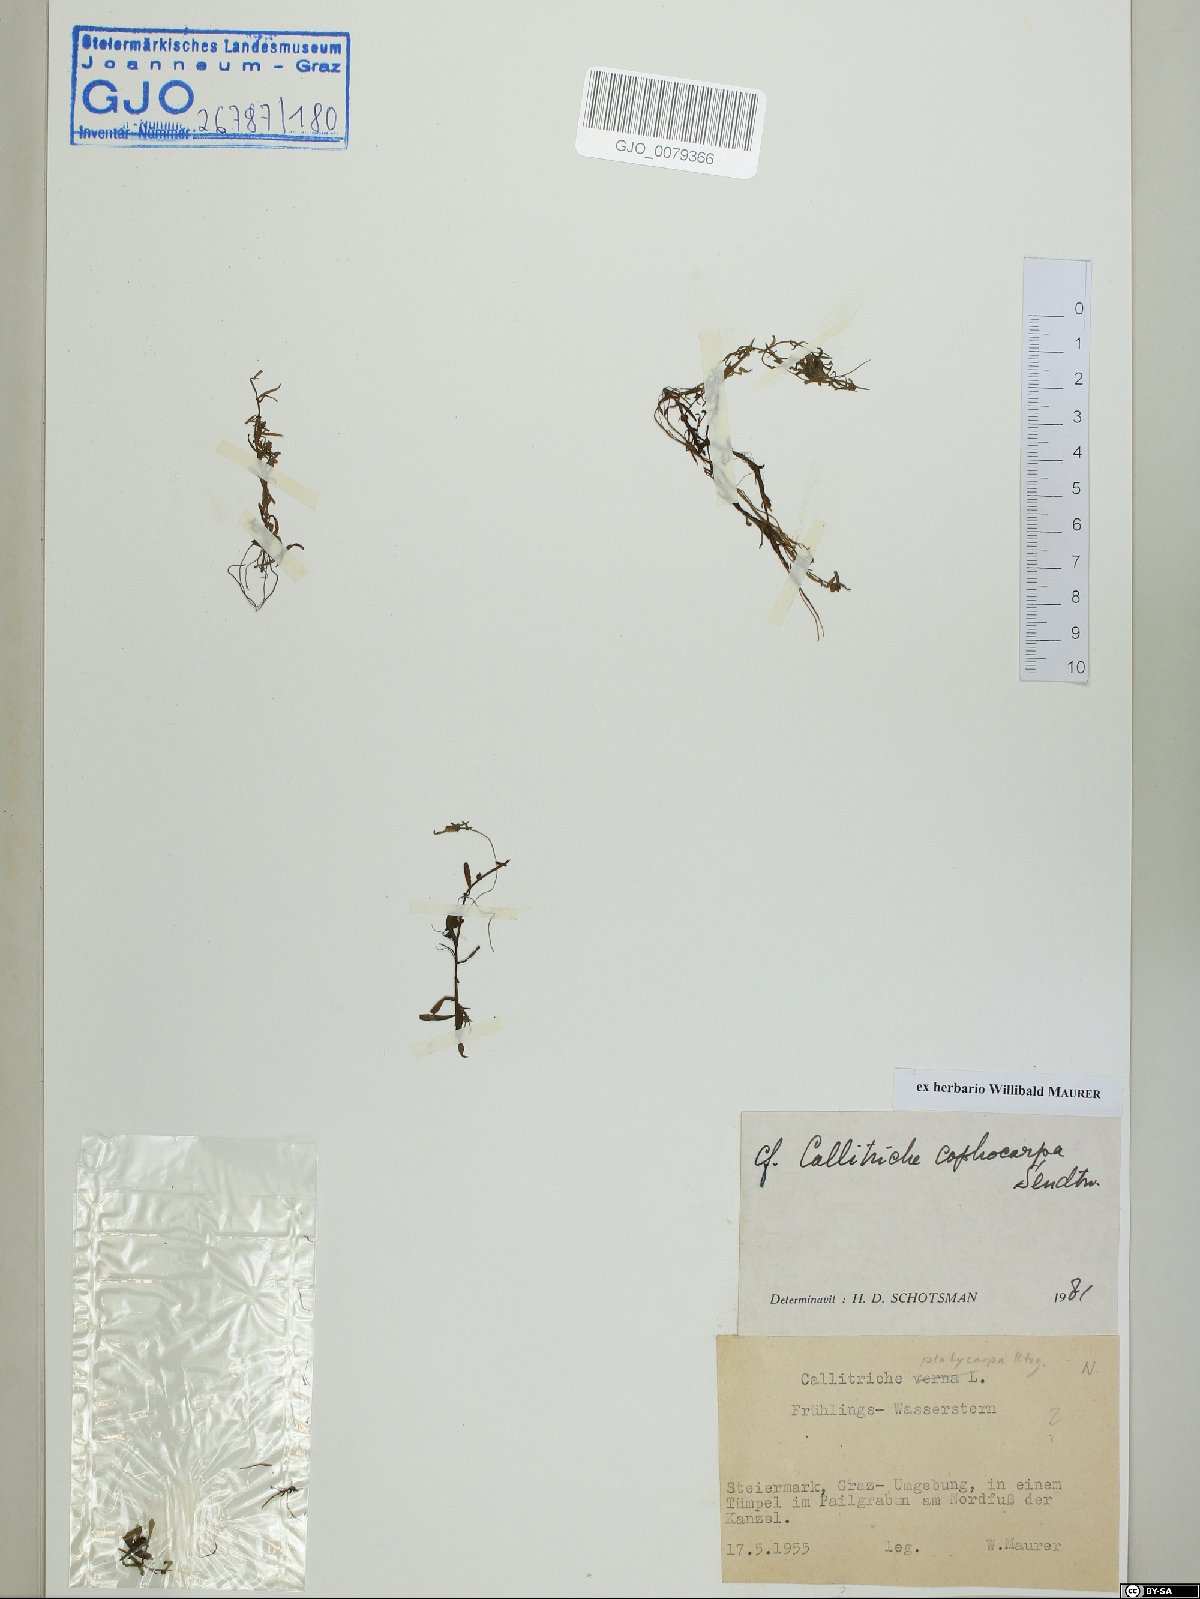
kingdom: Plantae
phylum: Tracheophyta
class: Magnoliopsida
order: Lamiales
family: Plantaginaceae
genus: Callitriche
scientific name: Callitriche cophocarpa
